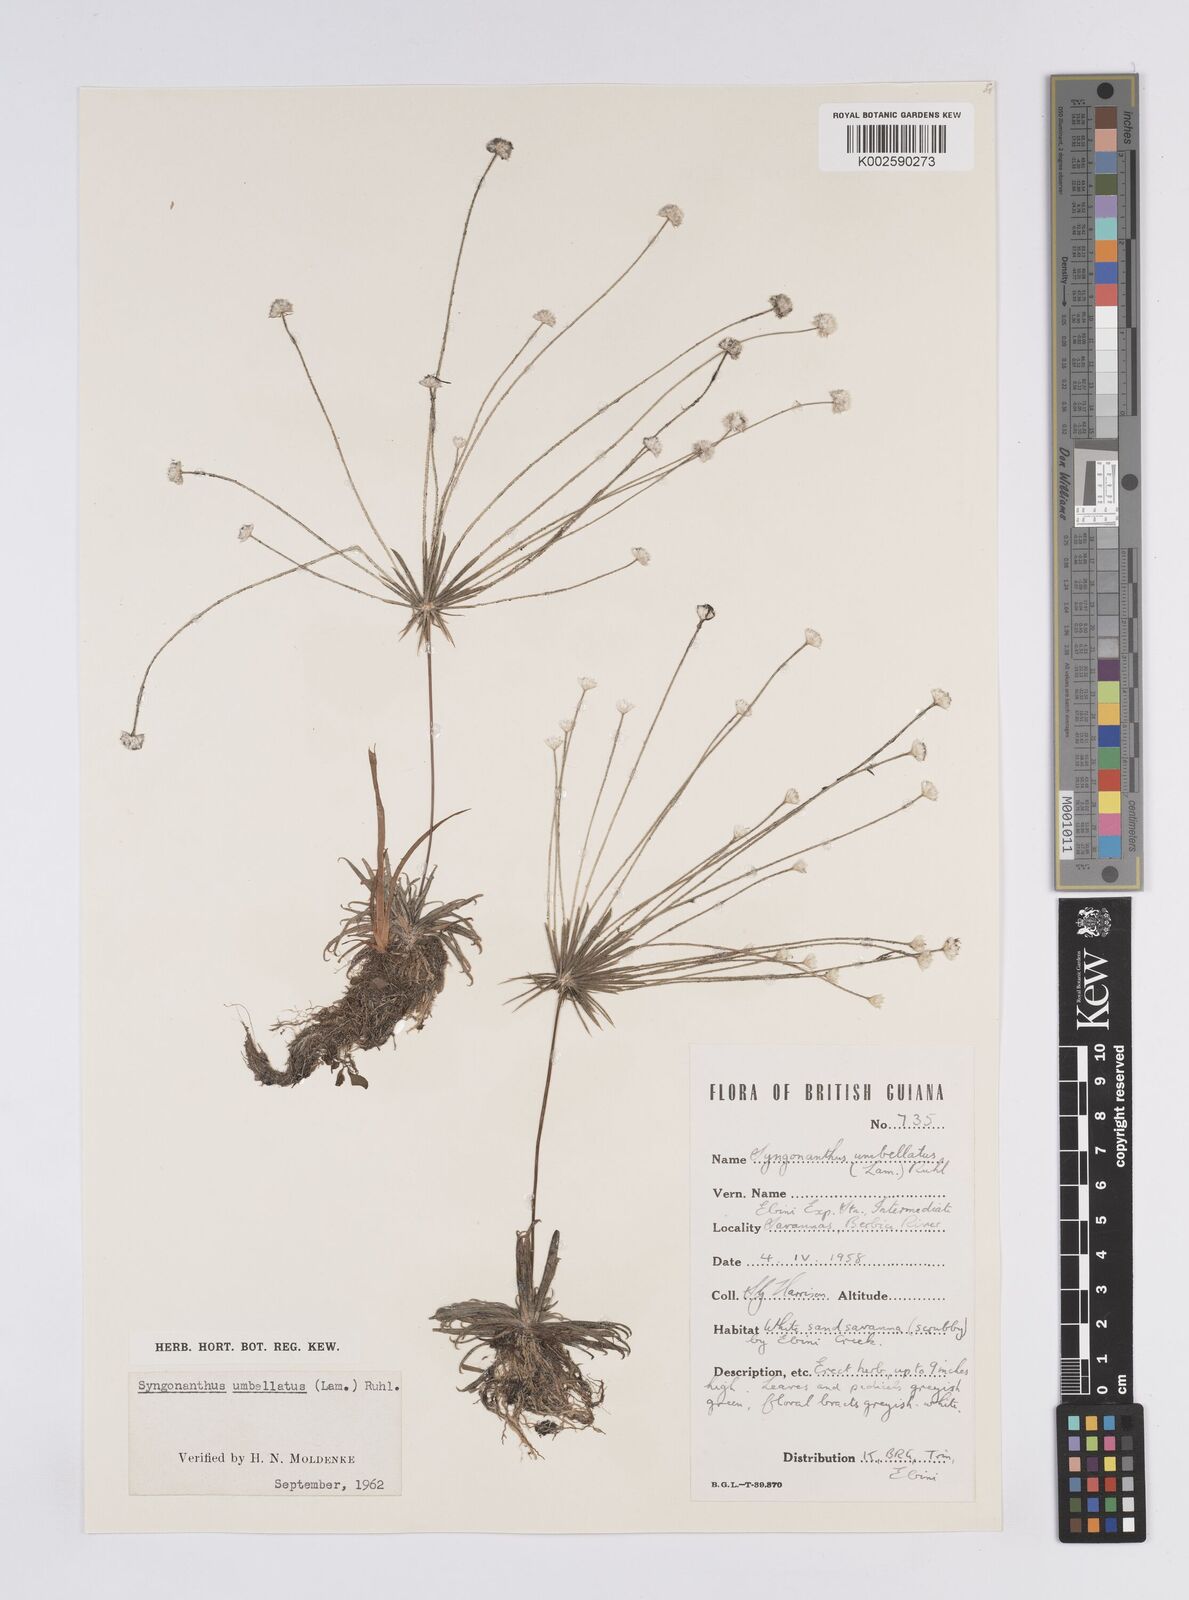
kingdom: Plantae
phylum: Tracheophyta
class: Liliopsida
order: Poales
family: Eriocaulaceae
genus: Syngonanthus
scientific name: Syngonanthus umbellatus
